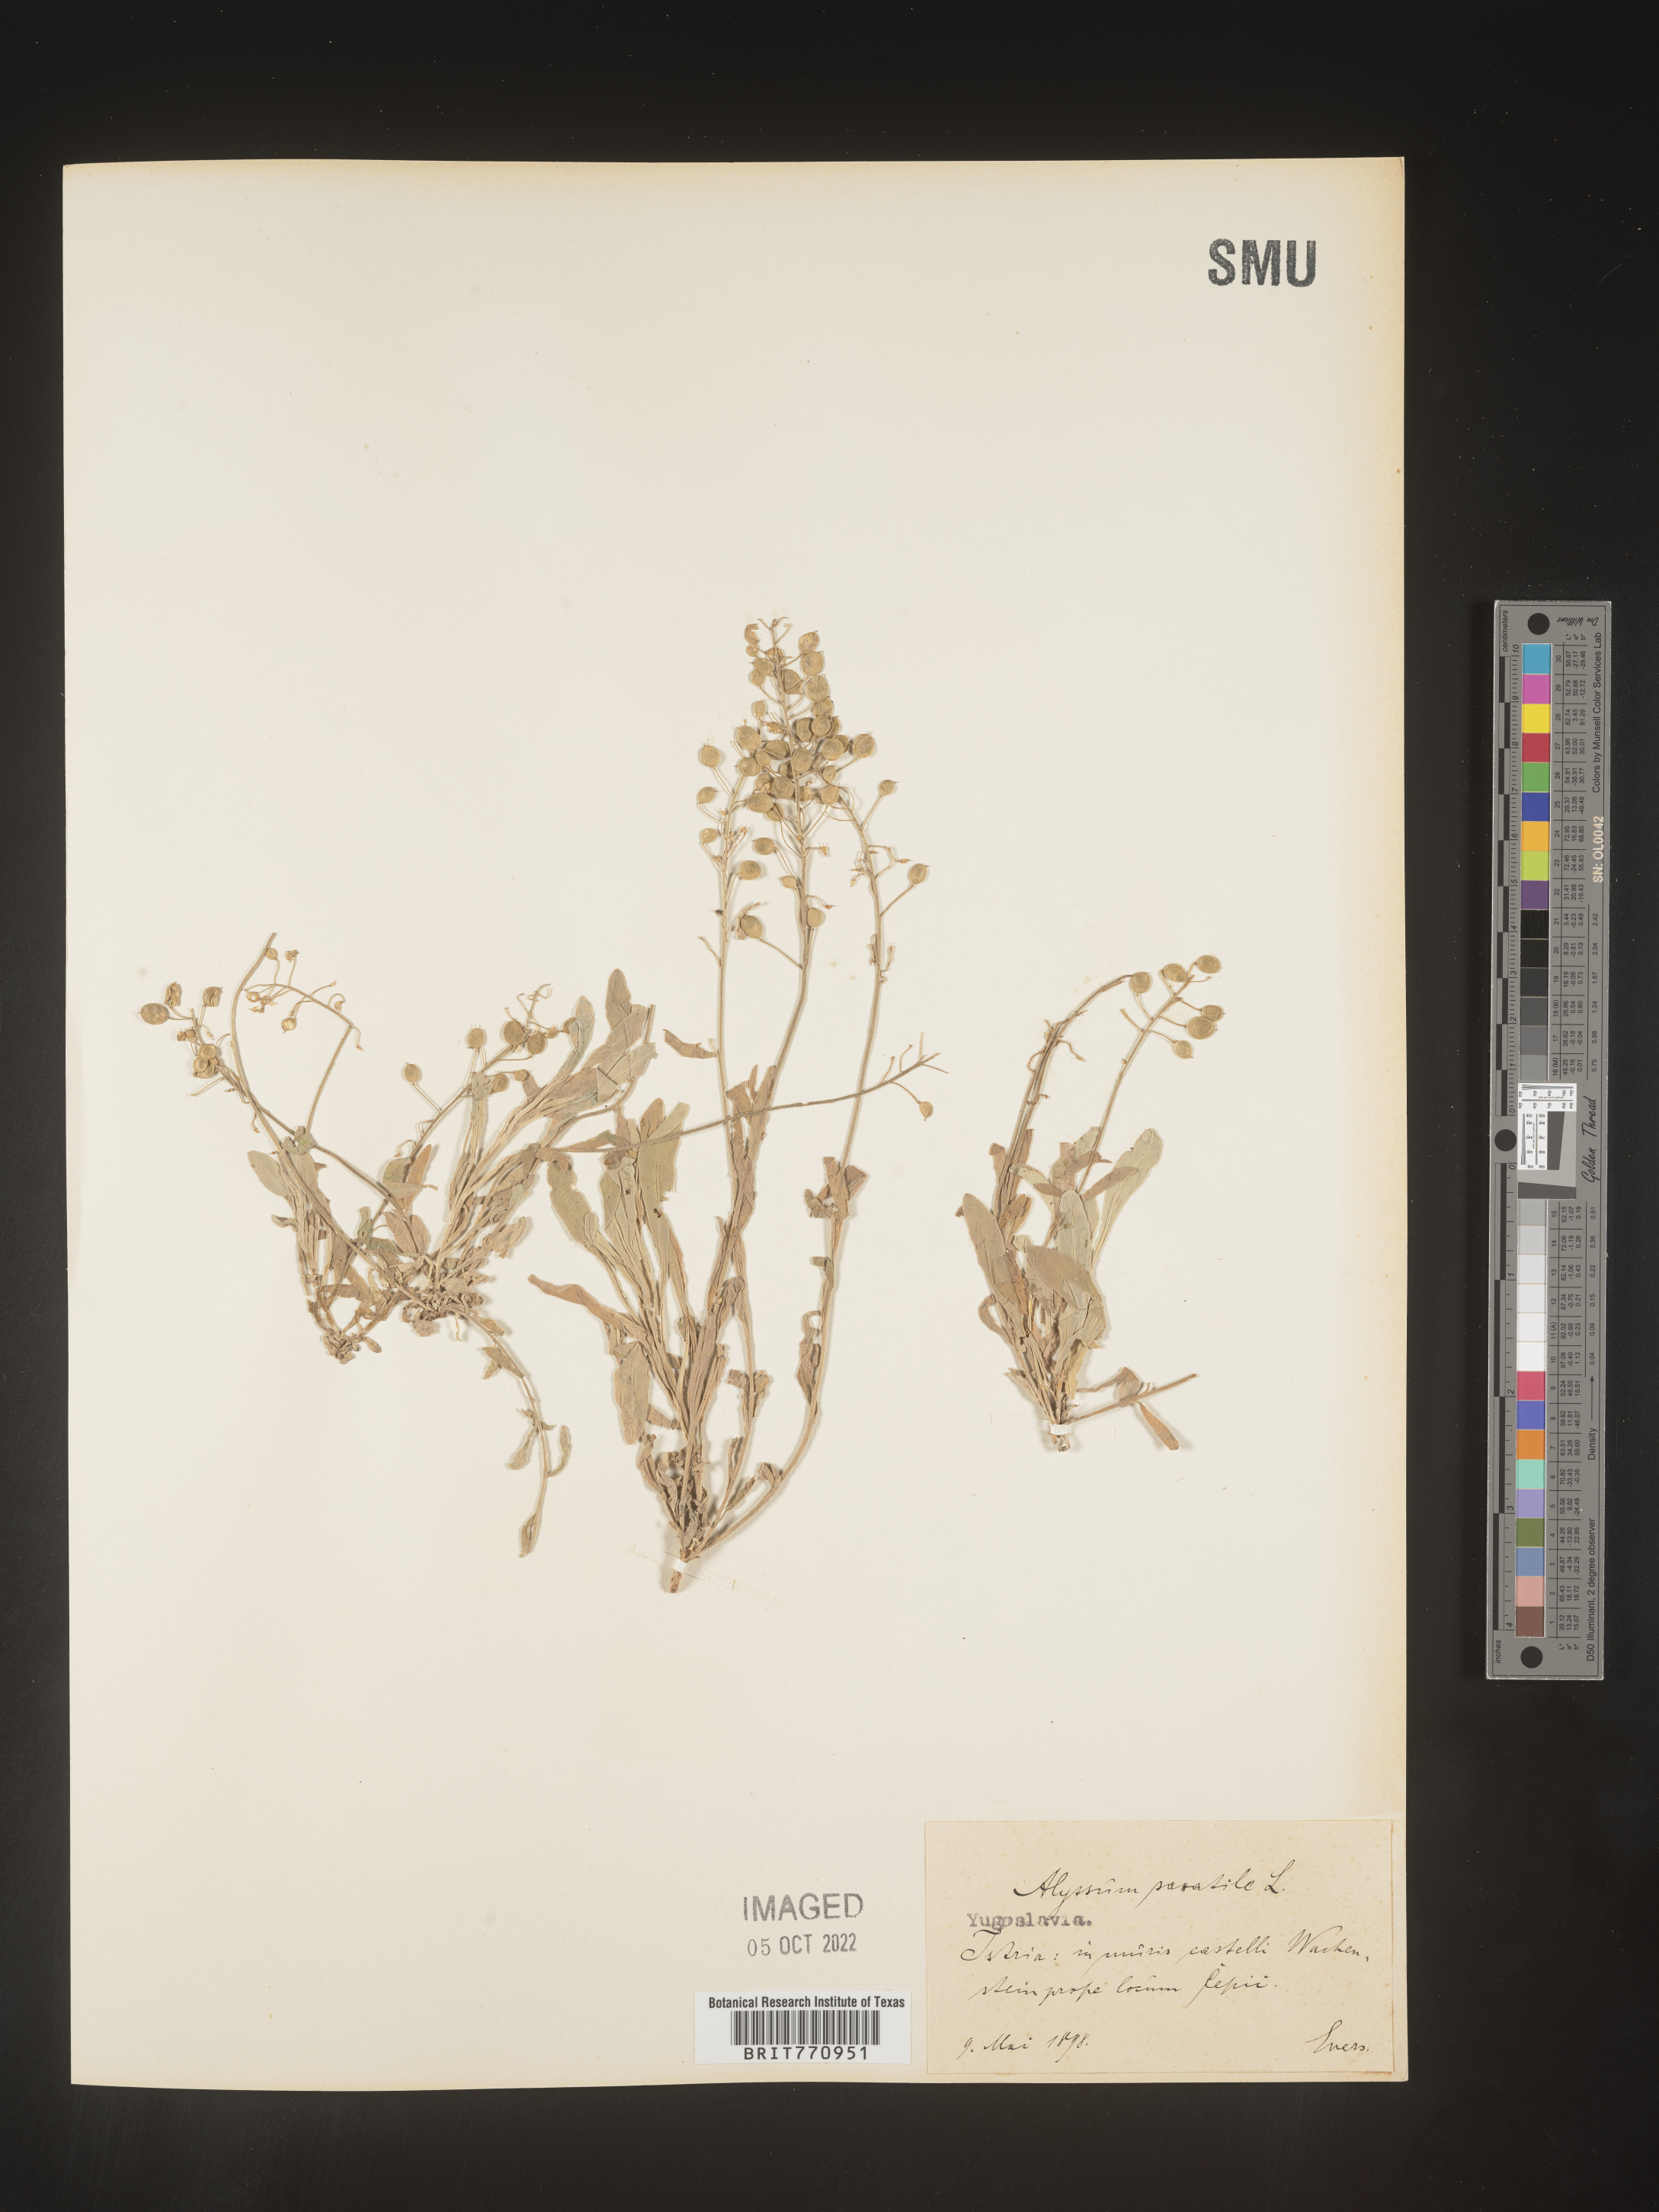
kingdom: Plantae
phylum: Tracheophyta
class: Magnoliopsida
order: Brassicales
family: Brassicaceae
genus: Alyssum
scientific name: Alyssum
